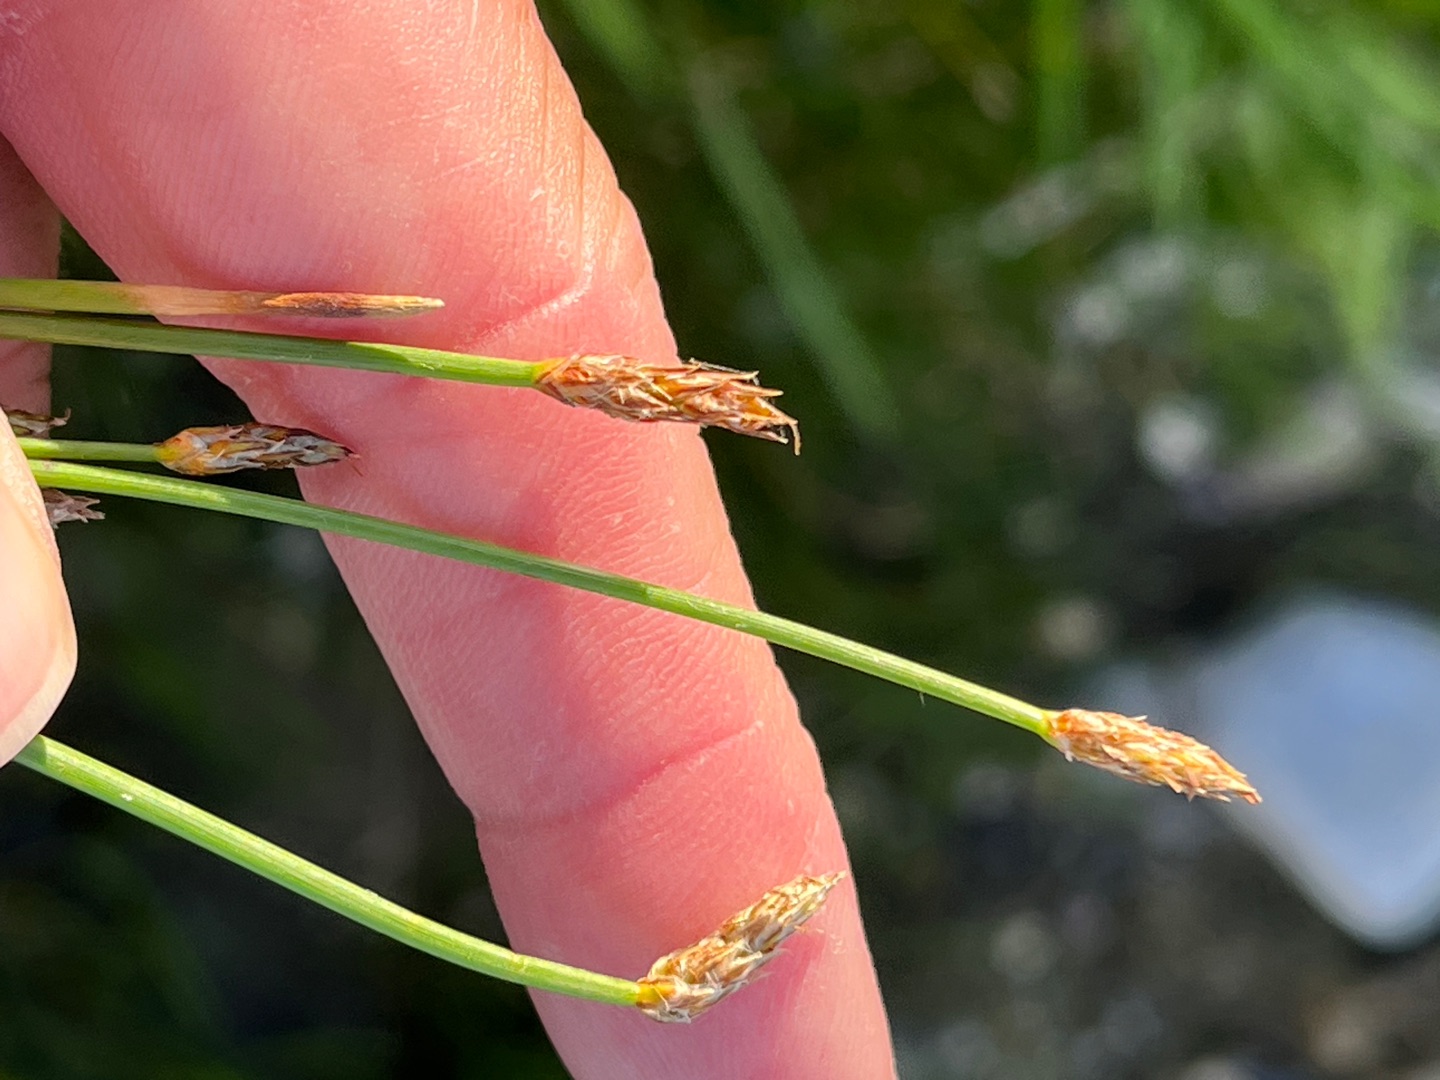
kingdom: Plantae
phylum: Tracheophyta
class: Liliopsida
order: Poales
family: Cyperaceae
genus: Eleocharis
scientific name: Eleocharis palustris
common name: Almindelig sumpstrå
